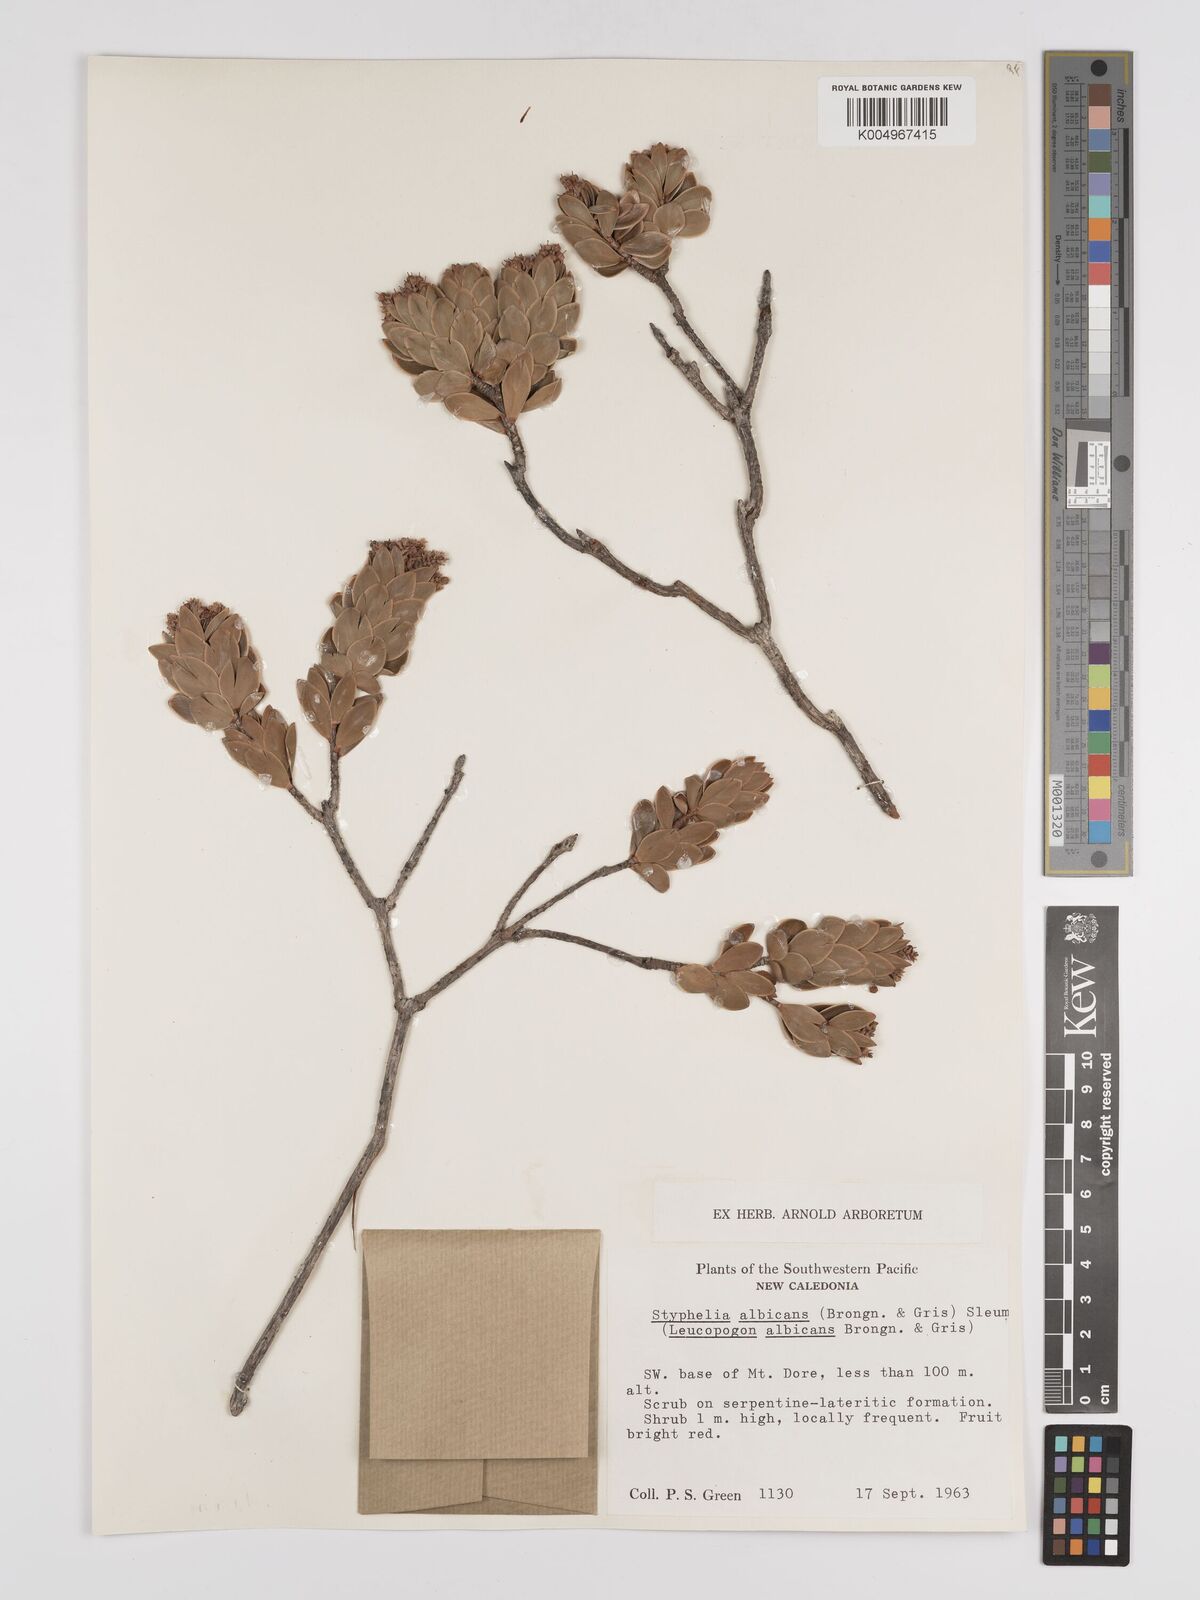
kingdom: Plantae
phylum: Tracheophyta
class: Magnoliopsida
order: Ericales
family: Ericaceae
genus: Cyathopsis
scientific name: Cyathopsis albicans
